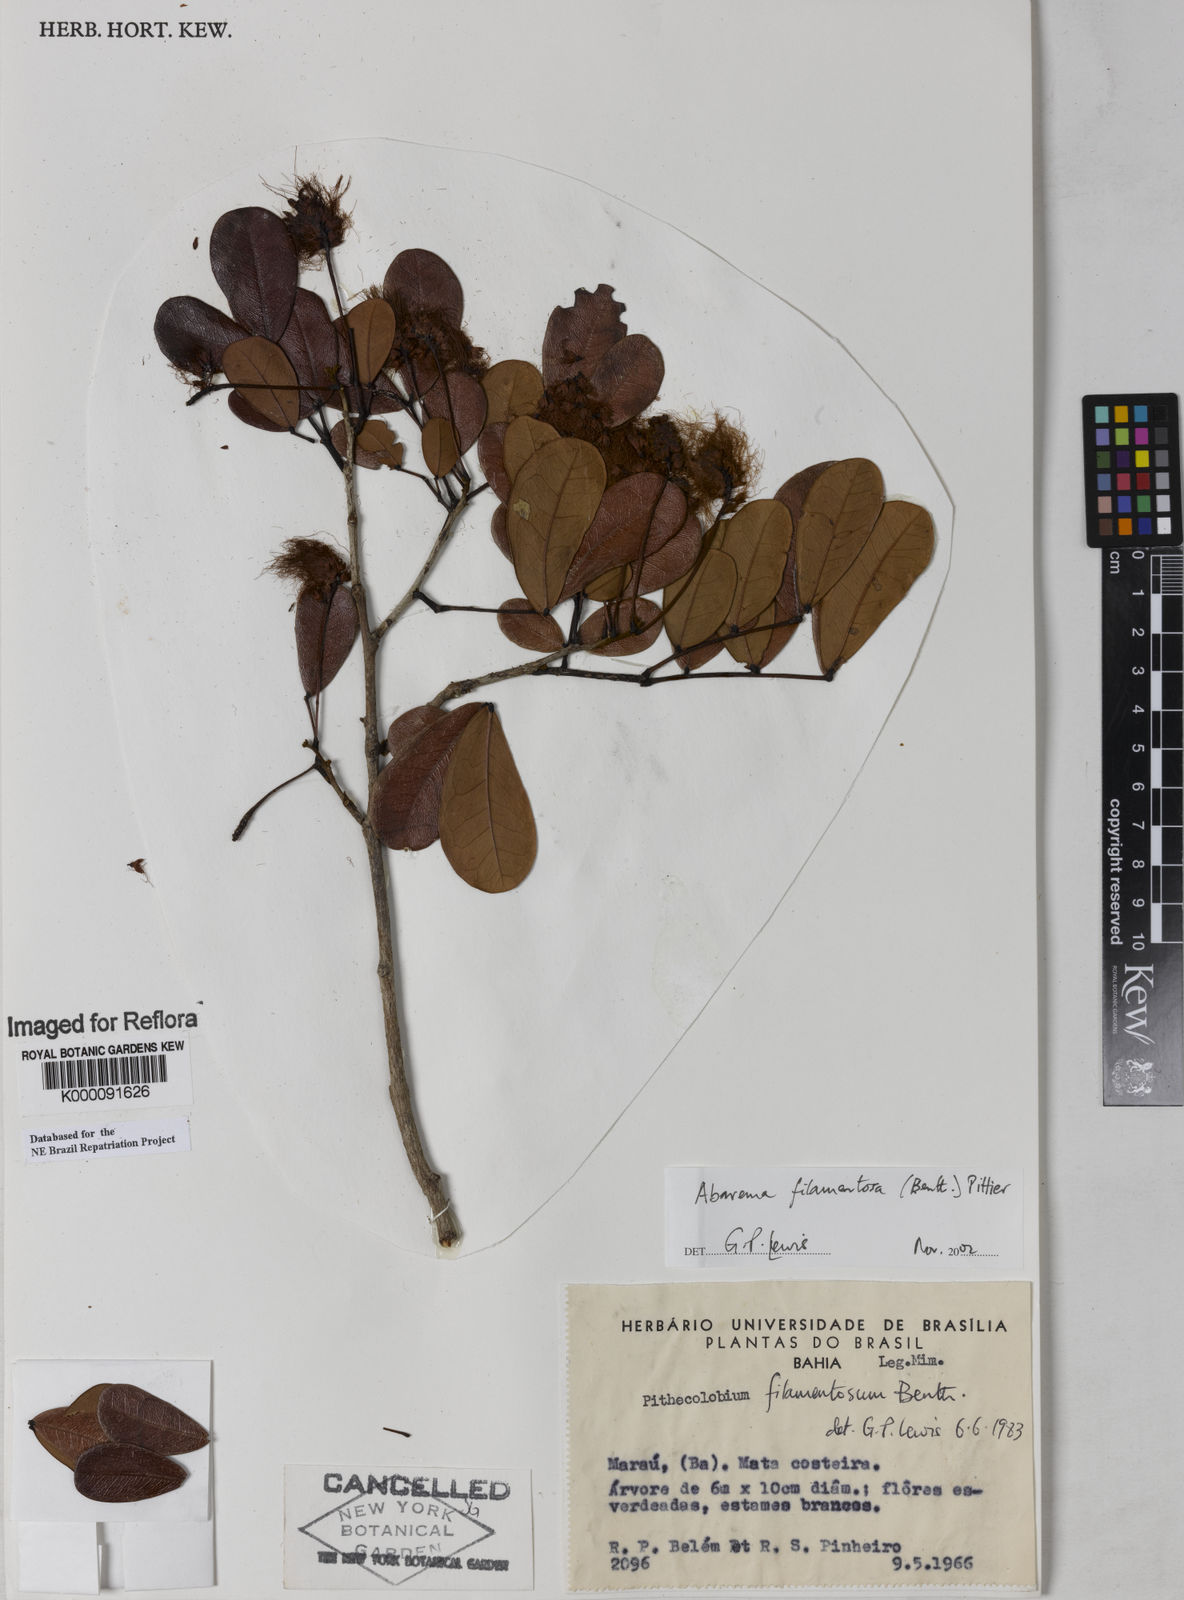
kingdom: Plantae
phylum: Tracheophyta
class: Magnoliopsida
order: Fabales
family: Fabaceae
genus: Jupunba
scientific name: Jupunba filamentosa
